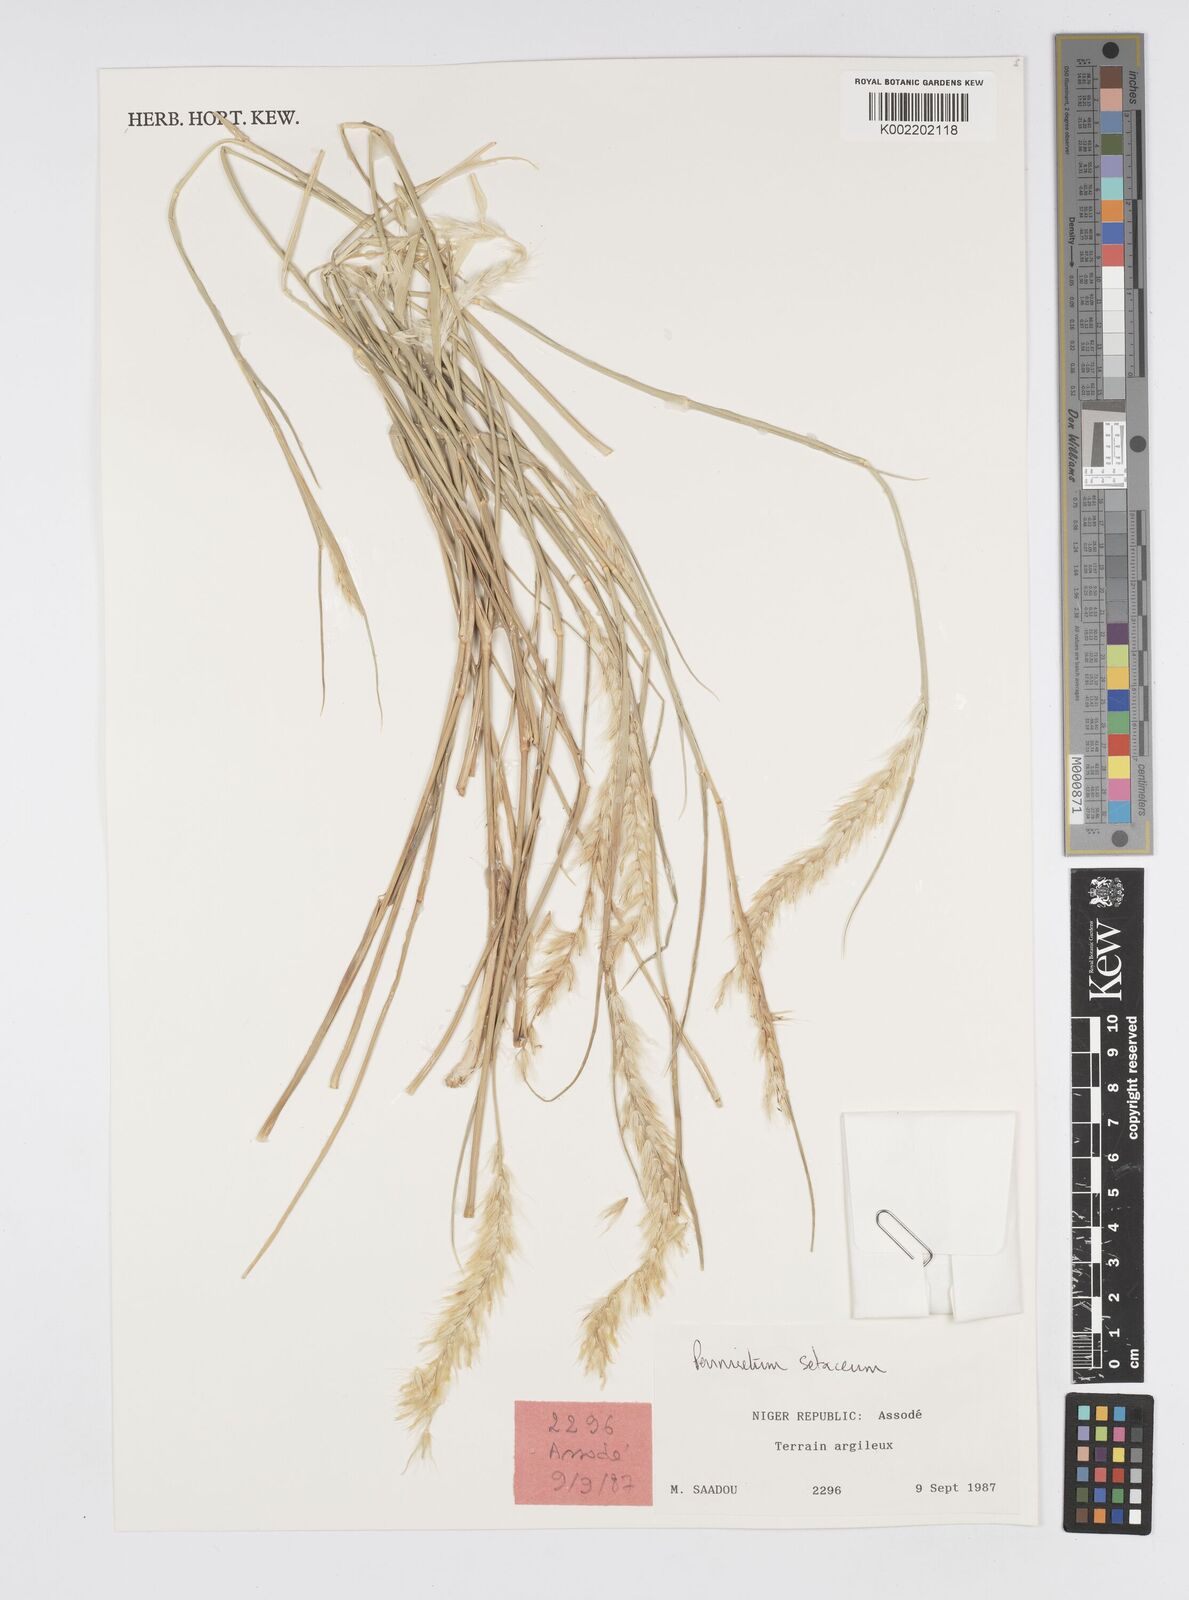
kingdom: Plantae
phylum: Tracheophyta
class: Liliopsida
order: Poales
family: Poaceae
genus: Cenchrus
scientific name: Cenchrus setaceus
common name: Crimson fountaingrass
